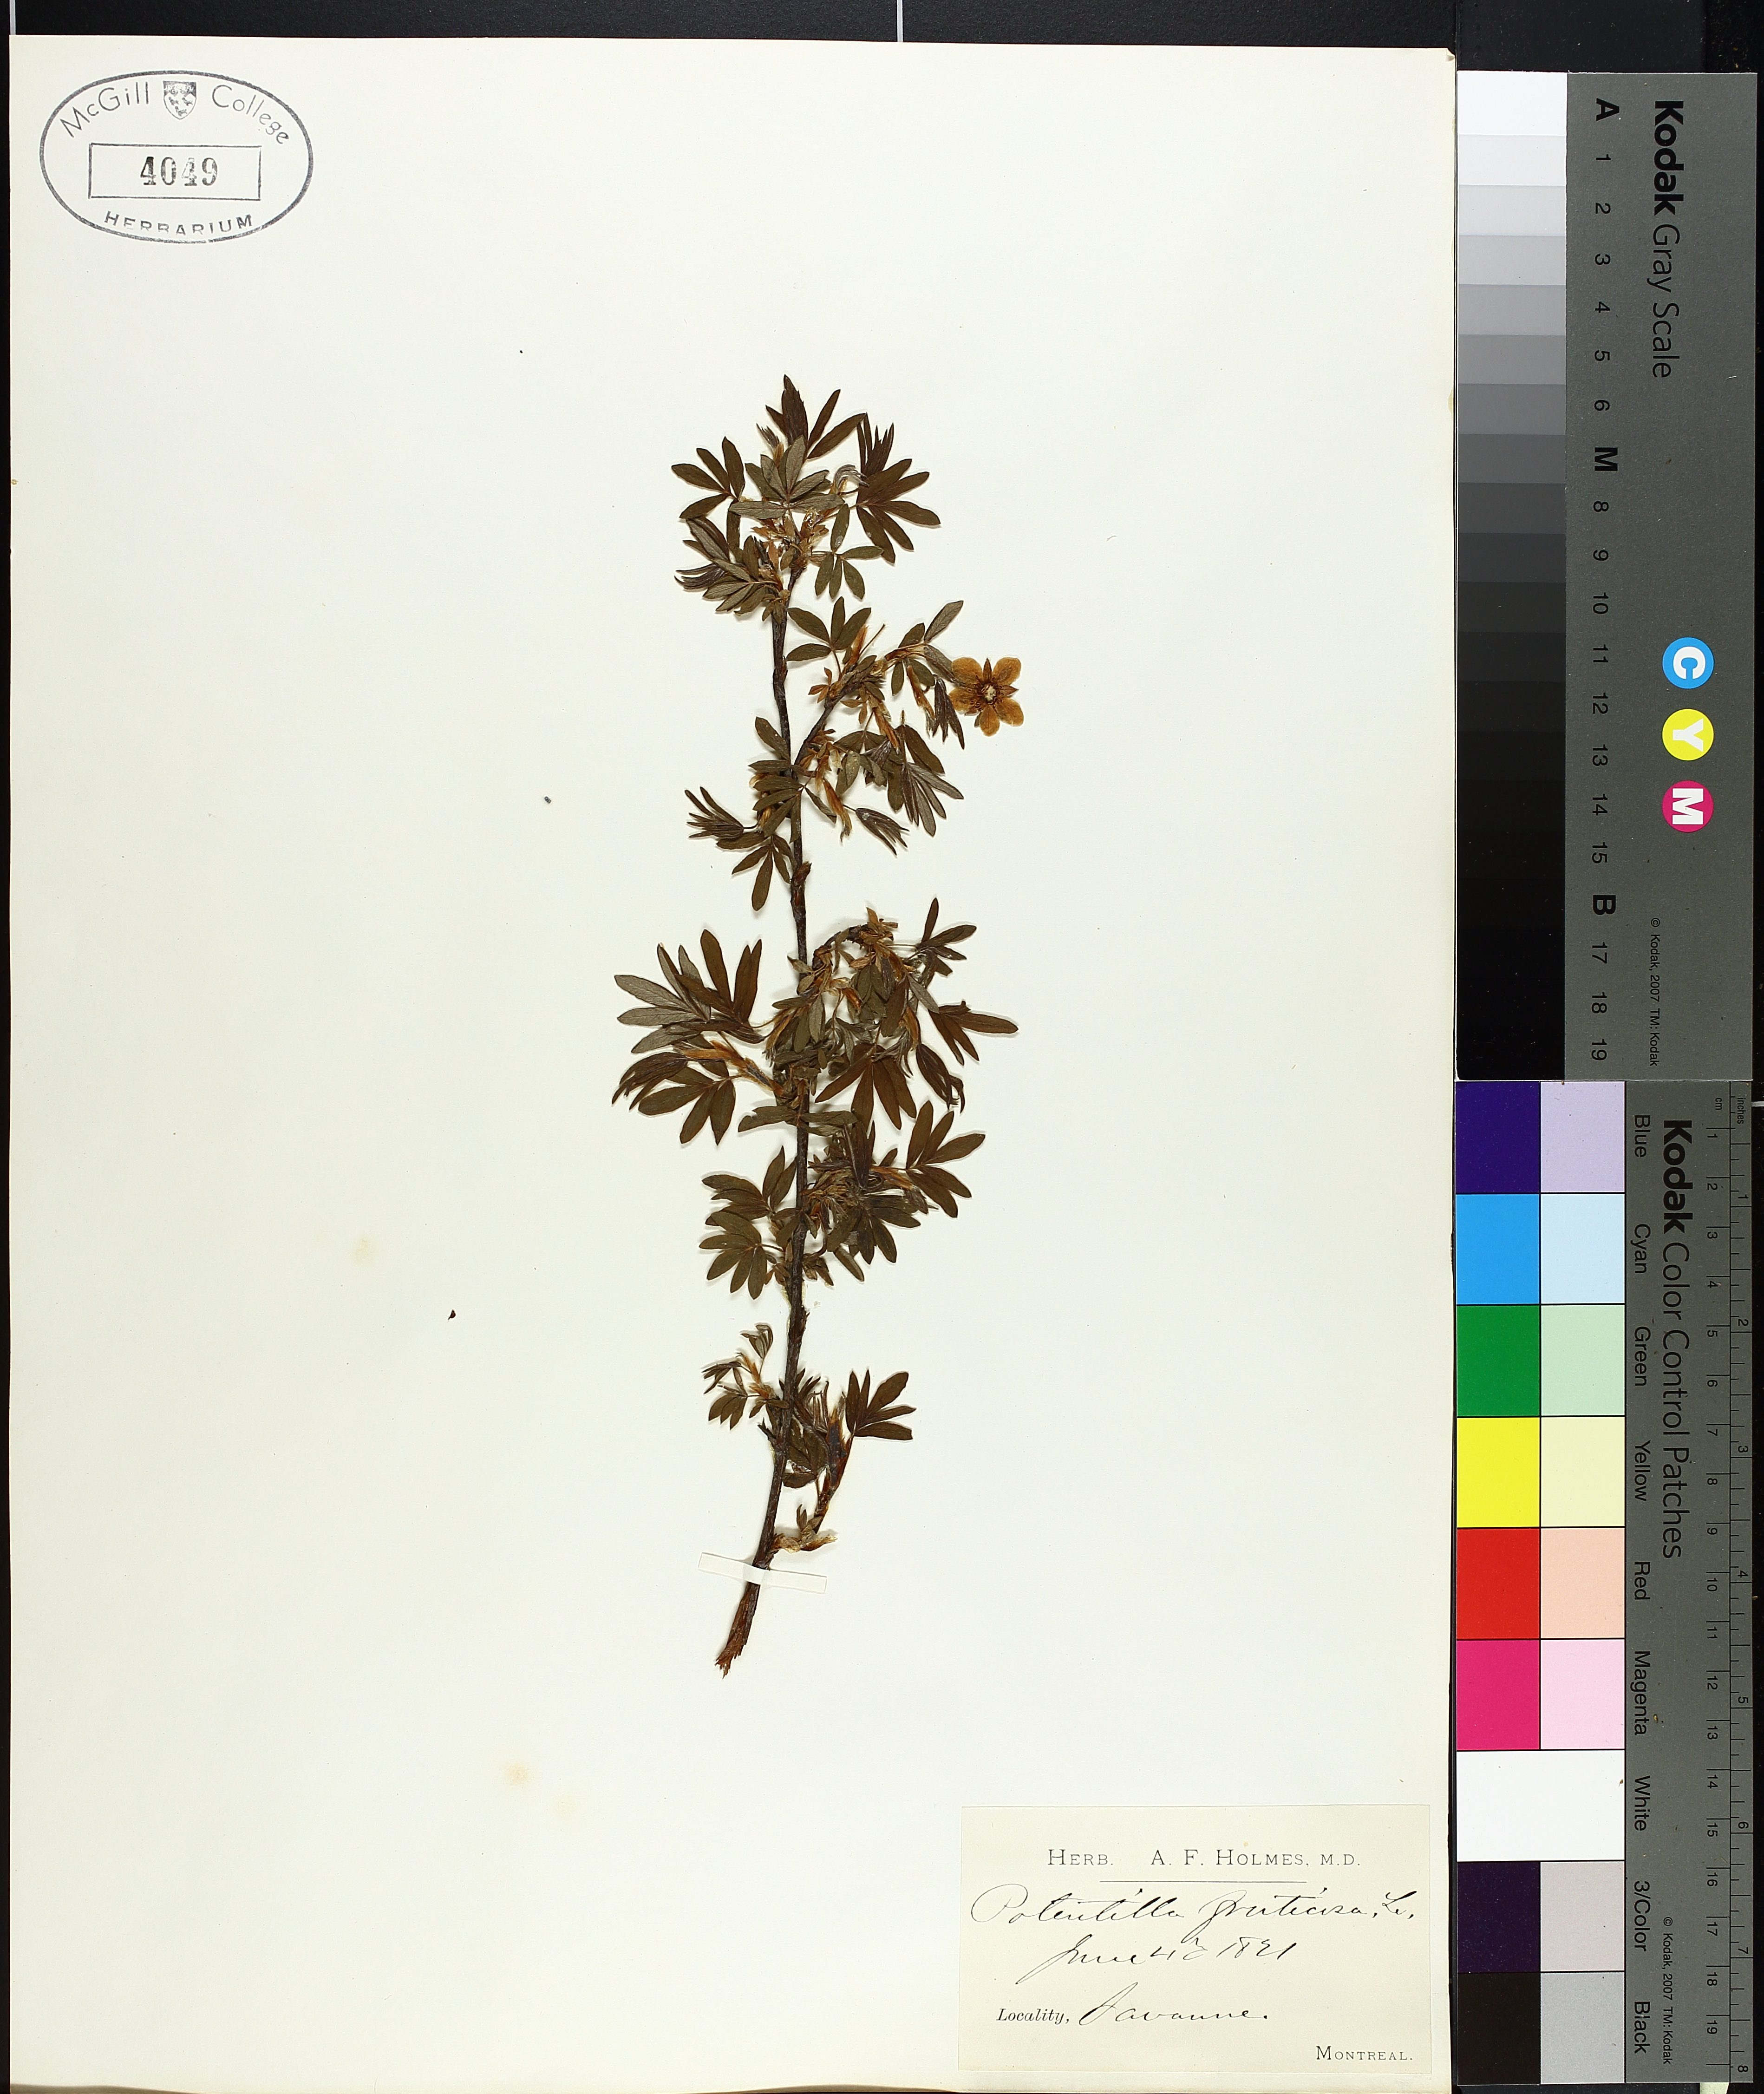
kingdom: Plantae
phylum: Tracheophyta
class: Magnoliopsida
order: Rosales
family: Rosaceae
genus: Dasiphora
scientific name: Dasiphora fruticosa
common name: Shrubby cinquefoil
